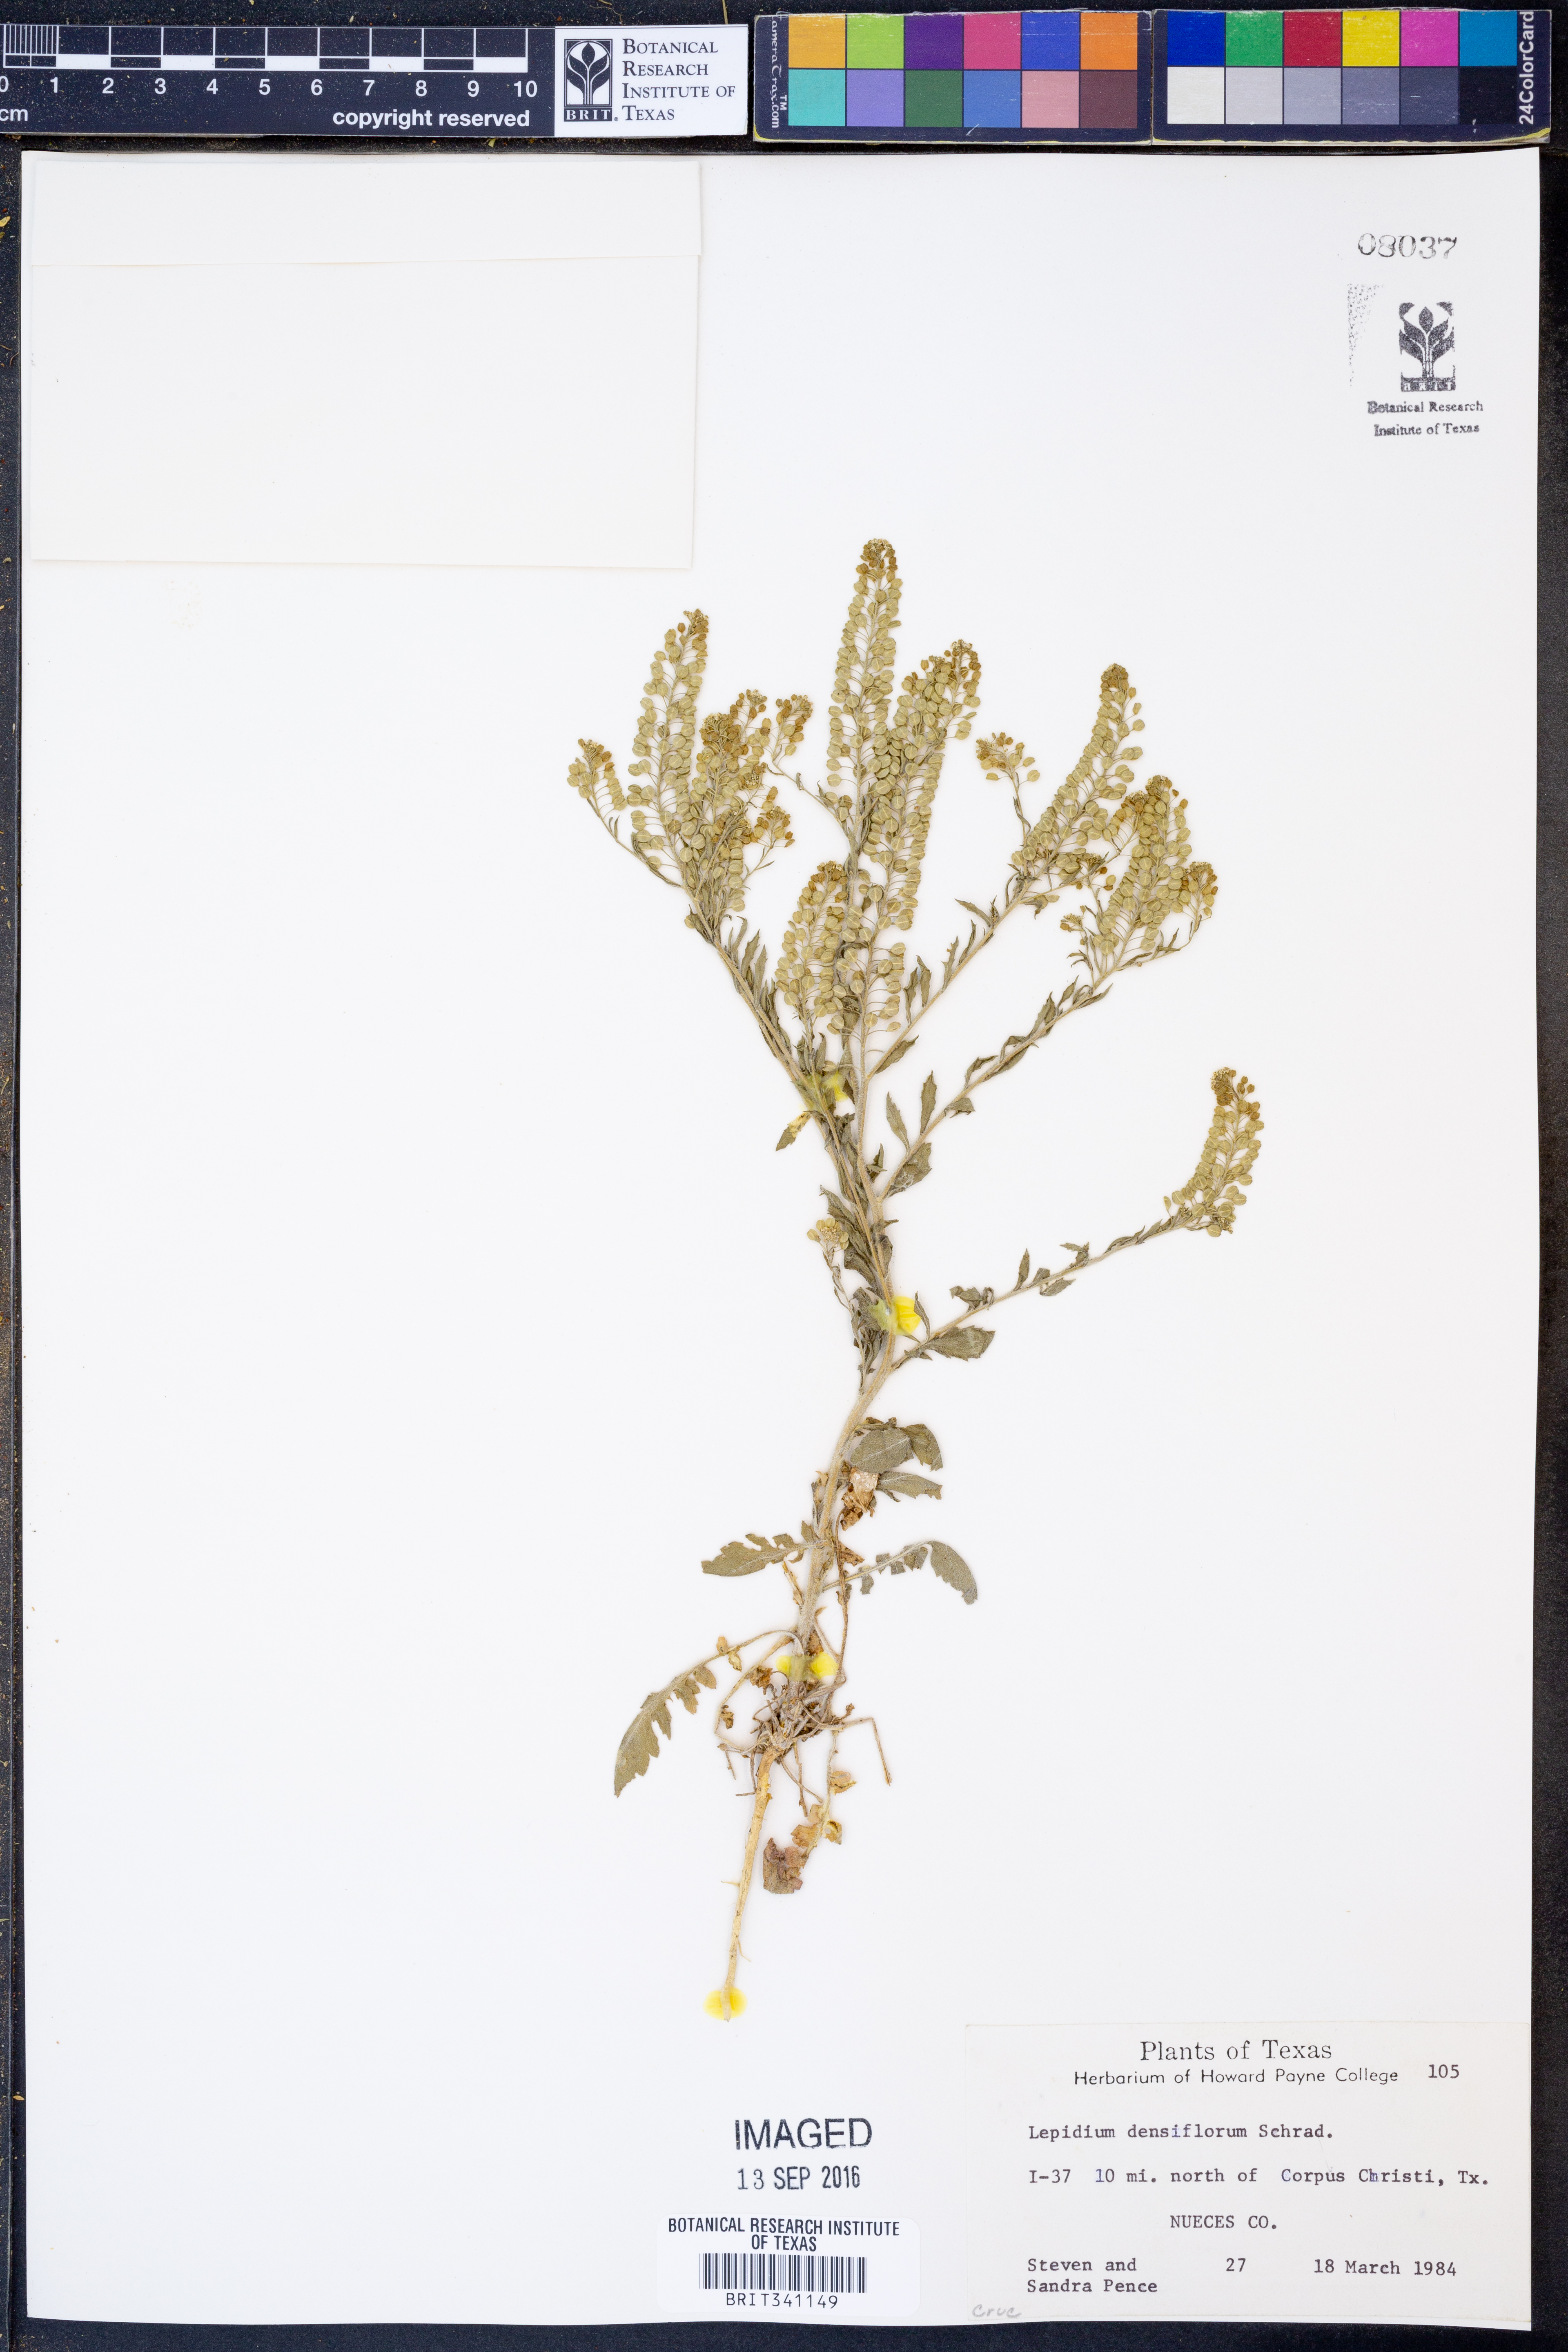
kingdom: Plantae
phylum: Tracheophyta
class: Magnoliopsida
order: Brassicales
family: Brassicaceae
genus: Lepidium
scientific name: Lepidium densiflorum
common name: Miner's pepperwort
